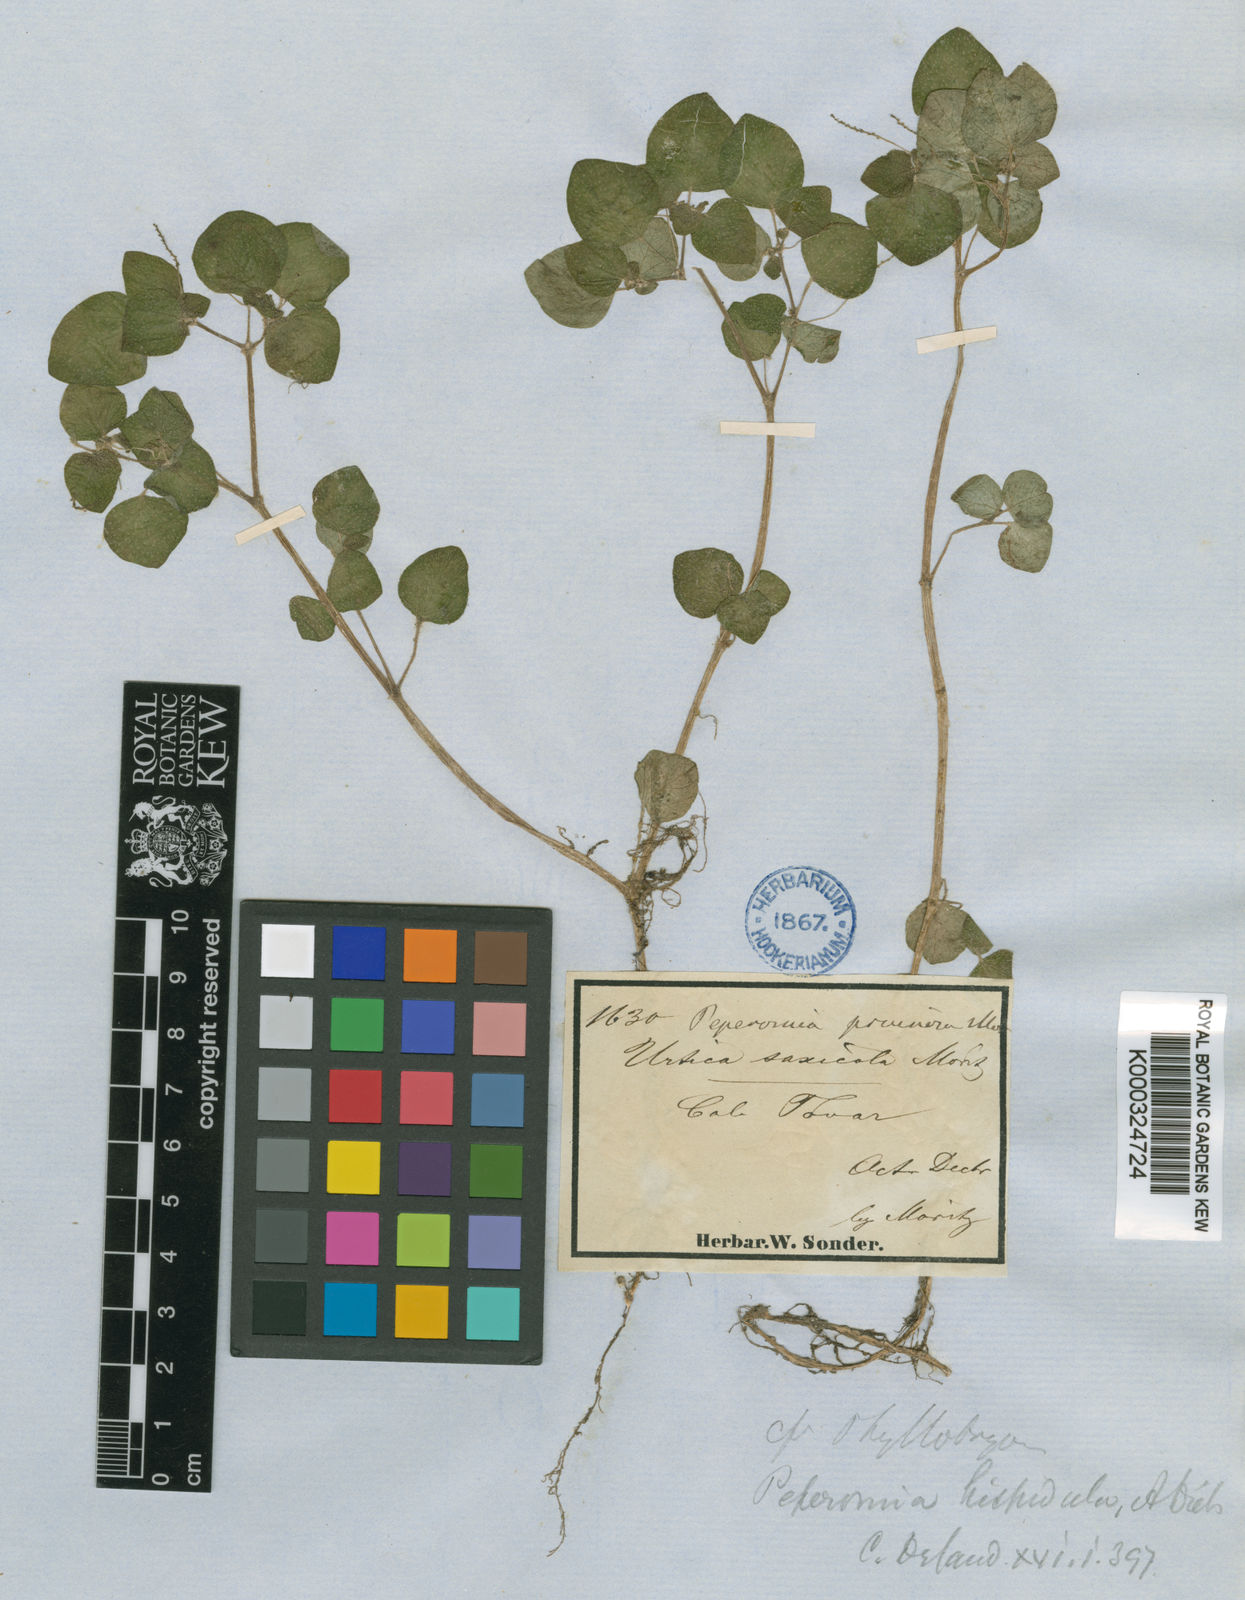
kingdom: Plantae
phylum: Tracheophyta
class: Magnoliopsida
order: Piperales
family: Piperaceae
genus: Peperomia
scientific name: Peperomia hispidula
